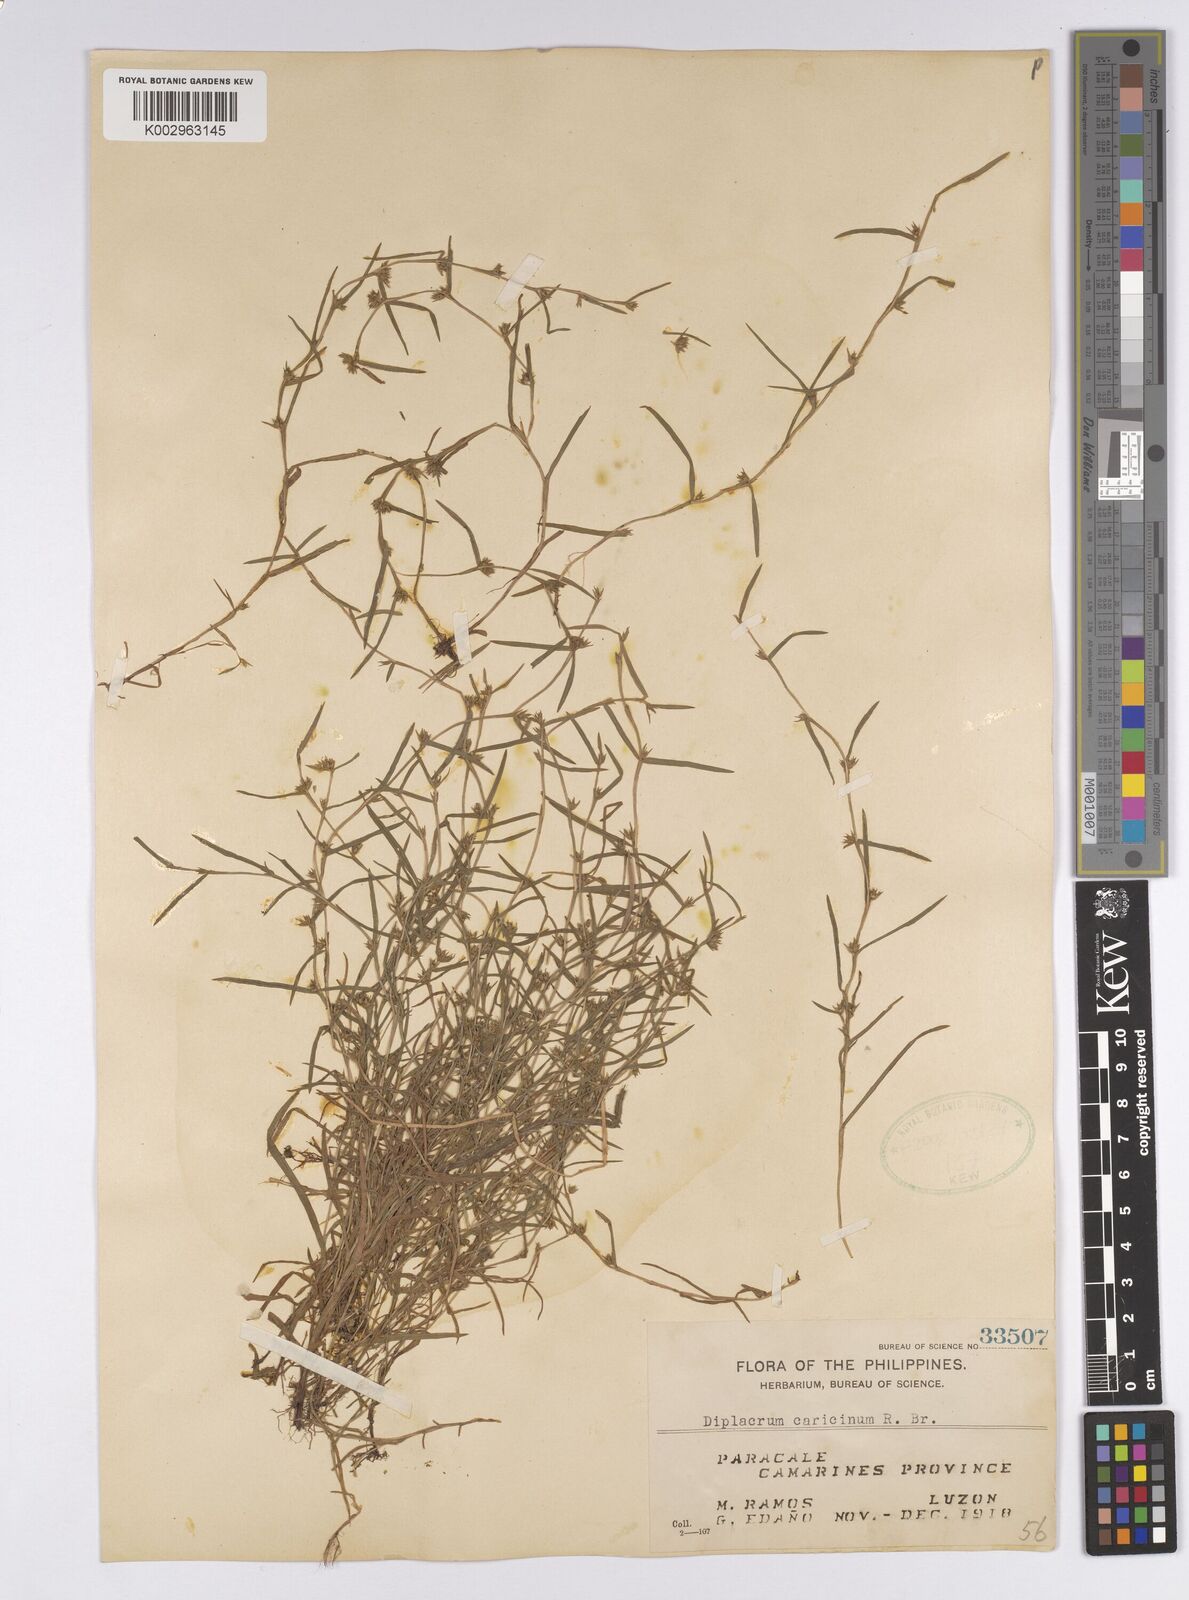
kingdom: Plantae
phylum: Tracheophyta
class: Liliopsida
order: Poales
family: Cyperaceae
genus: Diplacrum
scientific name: Diplacrum caricinum
